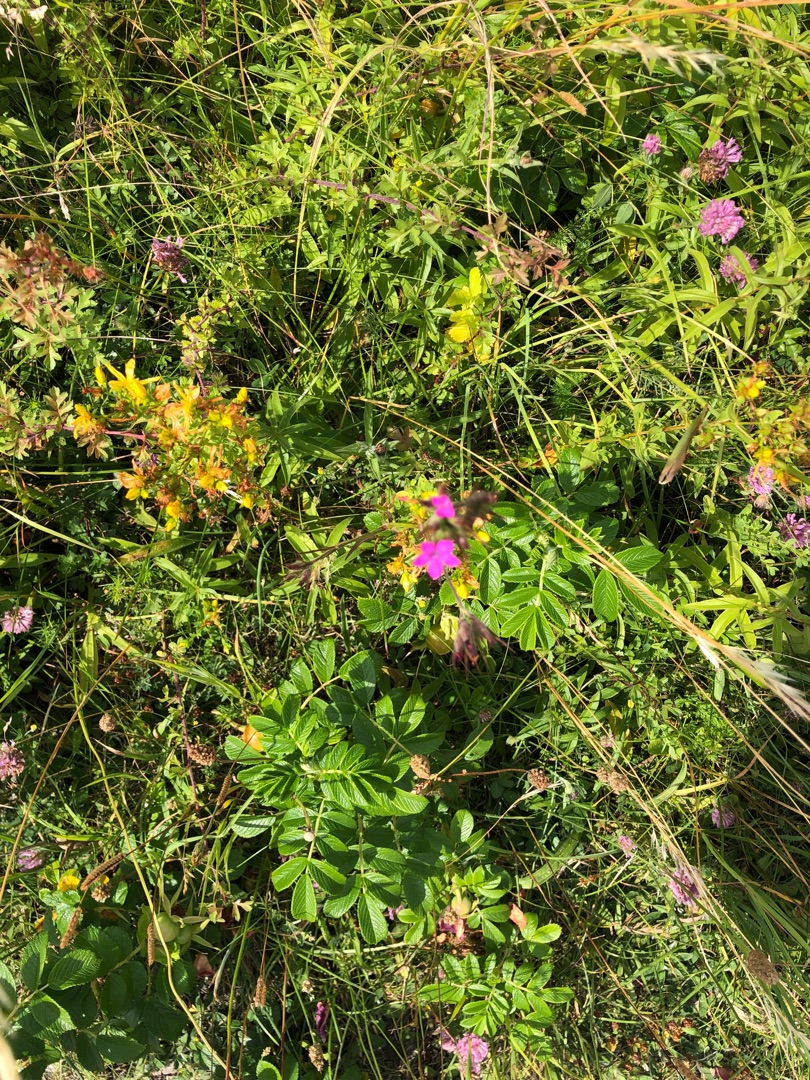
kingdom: Plantae
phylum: Tracheophyta
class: Magnoliopsida
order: Caryophyllales
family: Caryophyllaceae
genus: Dianthus
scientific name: Dianthus armeria
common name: Kost-nellike
